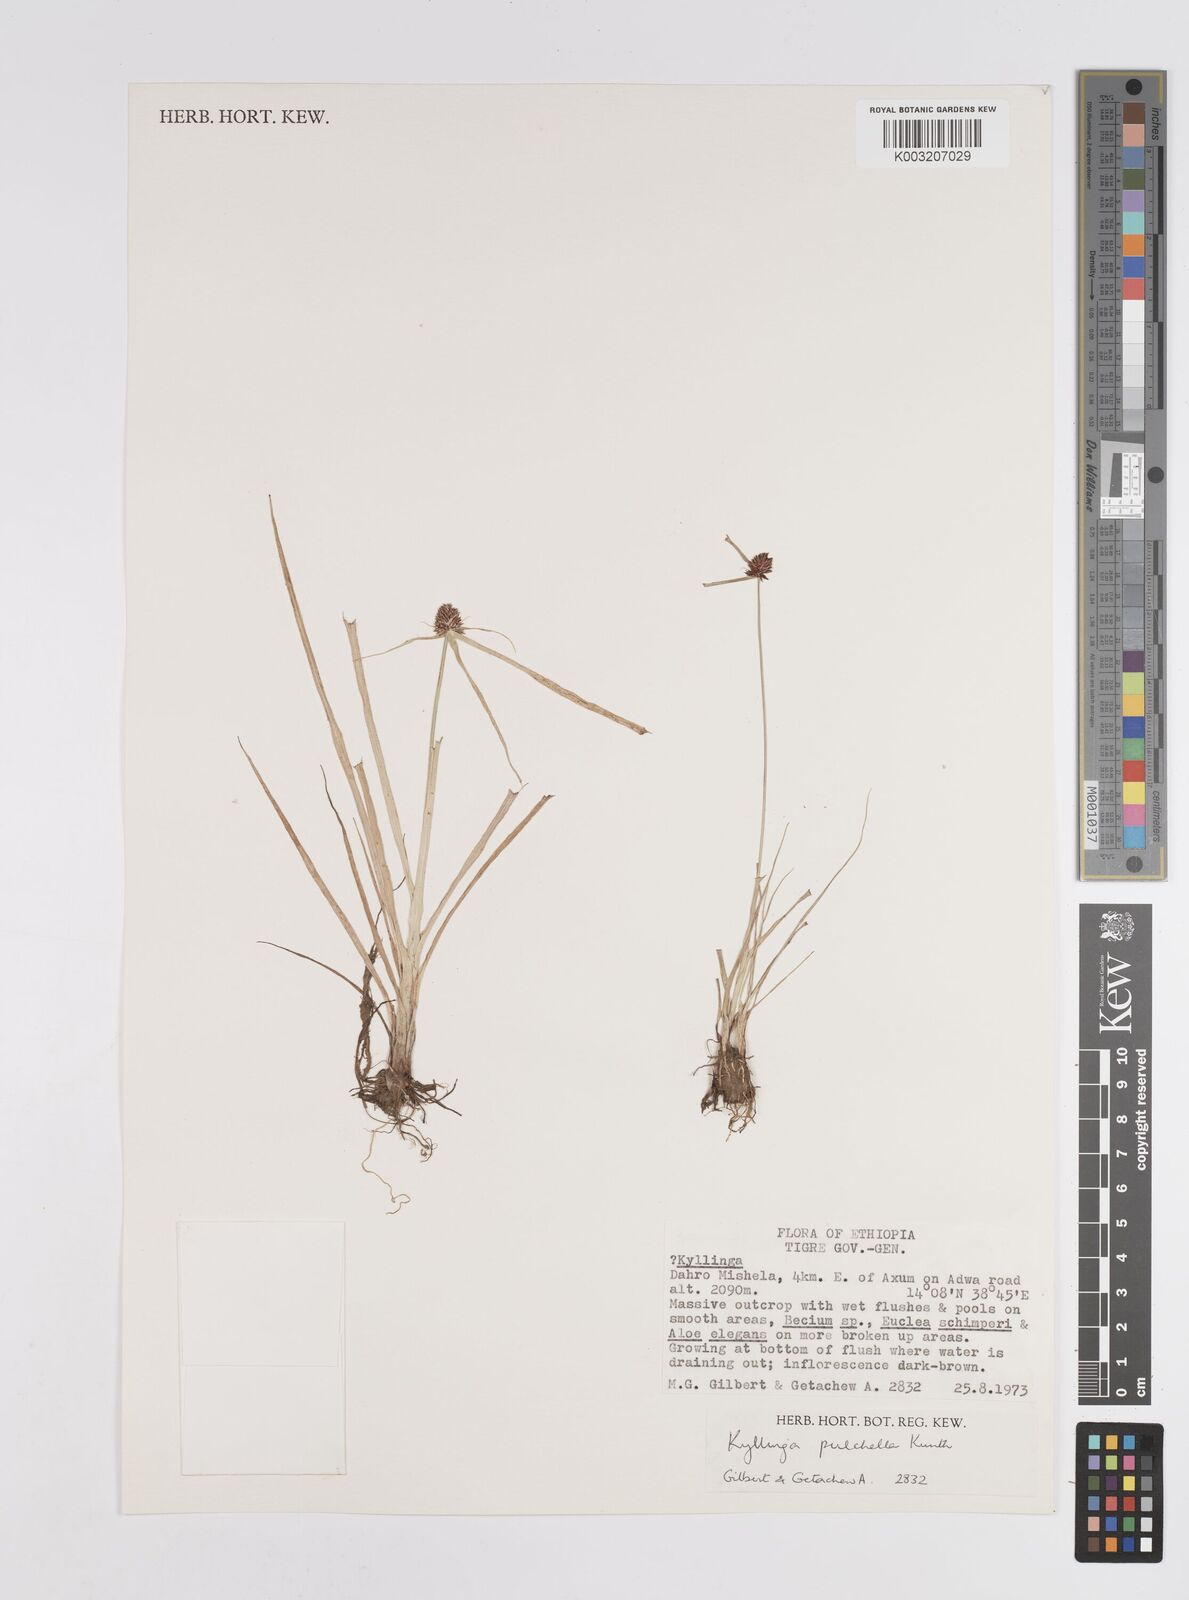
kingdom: Plantae
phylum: Tracheophyta
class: Liliopsida
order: Poales
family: Cyperaceae
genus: Cyperus
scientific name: Cyperus
